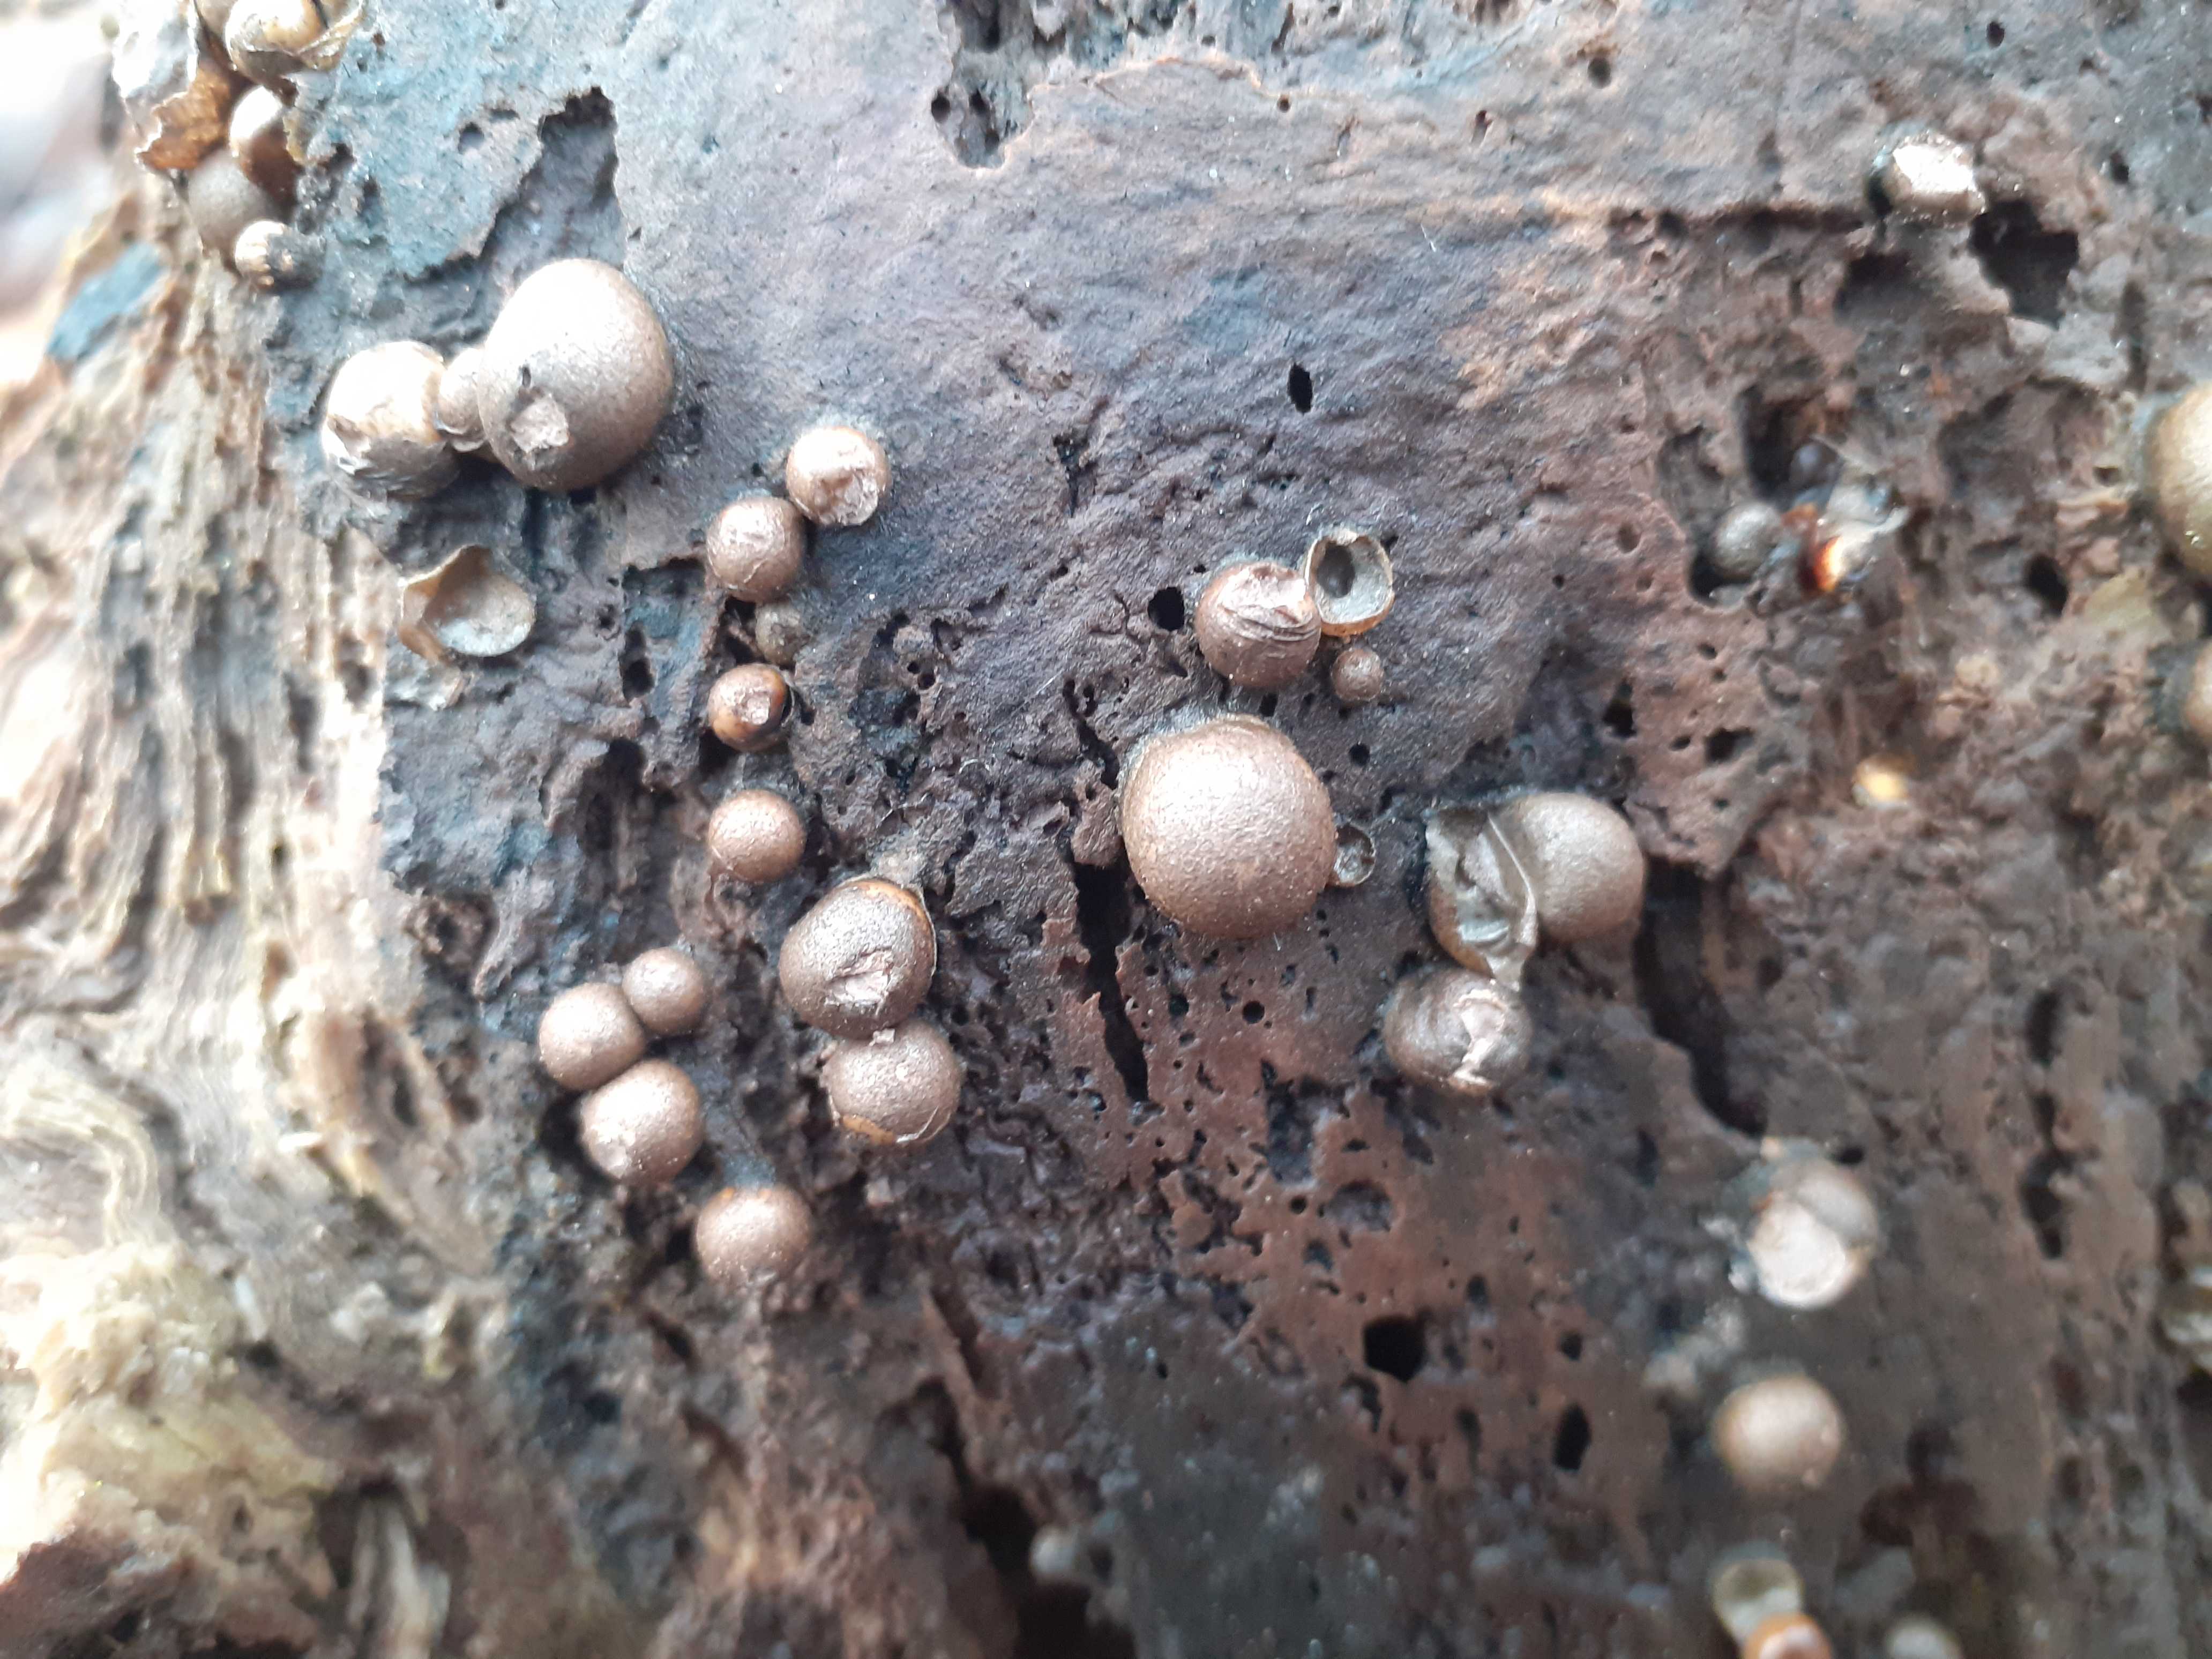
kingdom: Protozoa
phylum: Mycetozoa
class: Myxomycetes
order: Cribrariales
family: Tubiferaceae
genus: Lycogala
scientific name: Lycogala epidendrum
